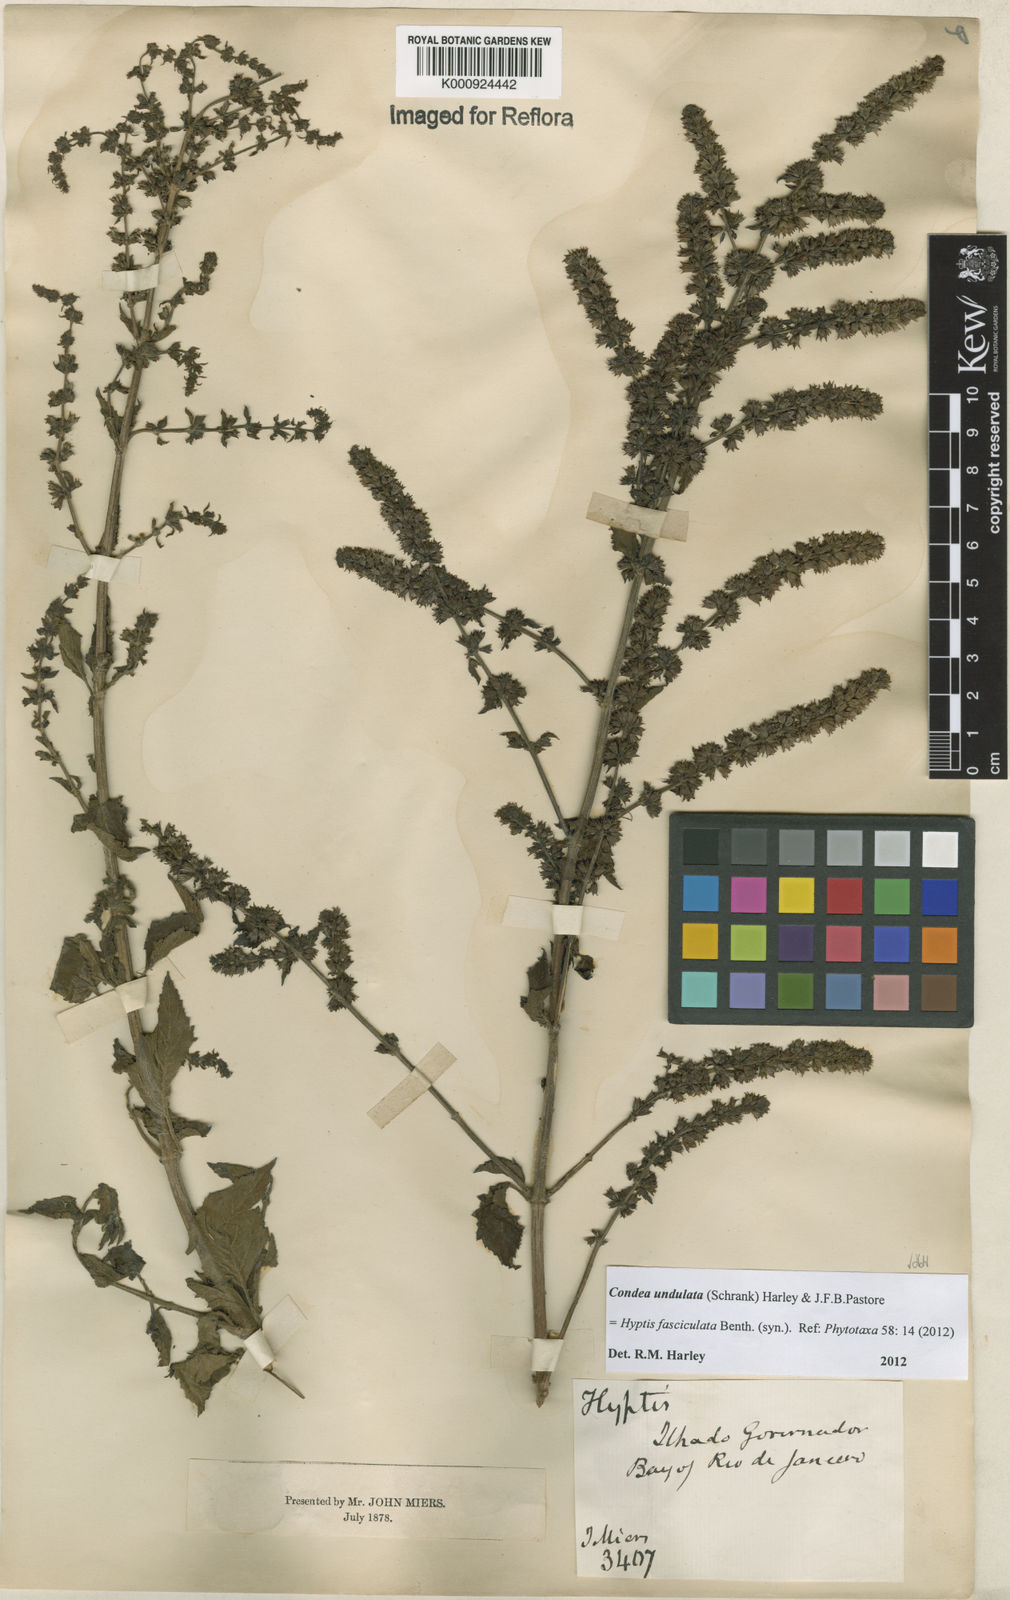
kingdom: Plantae
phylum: Tracheophyta
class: Magnoliopsida
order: Lamiales
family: Lamiaceae
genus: Condea
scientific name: Condea undulata
